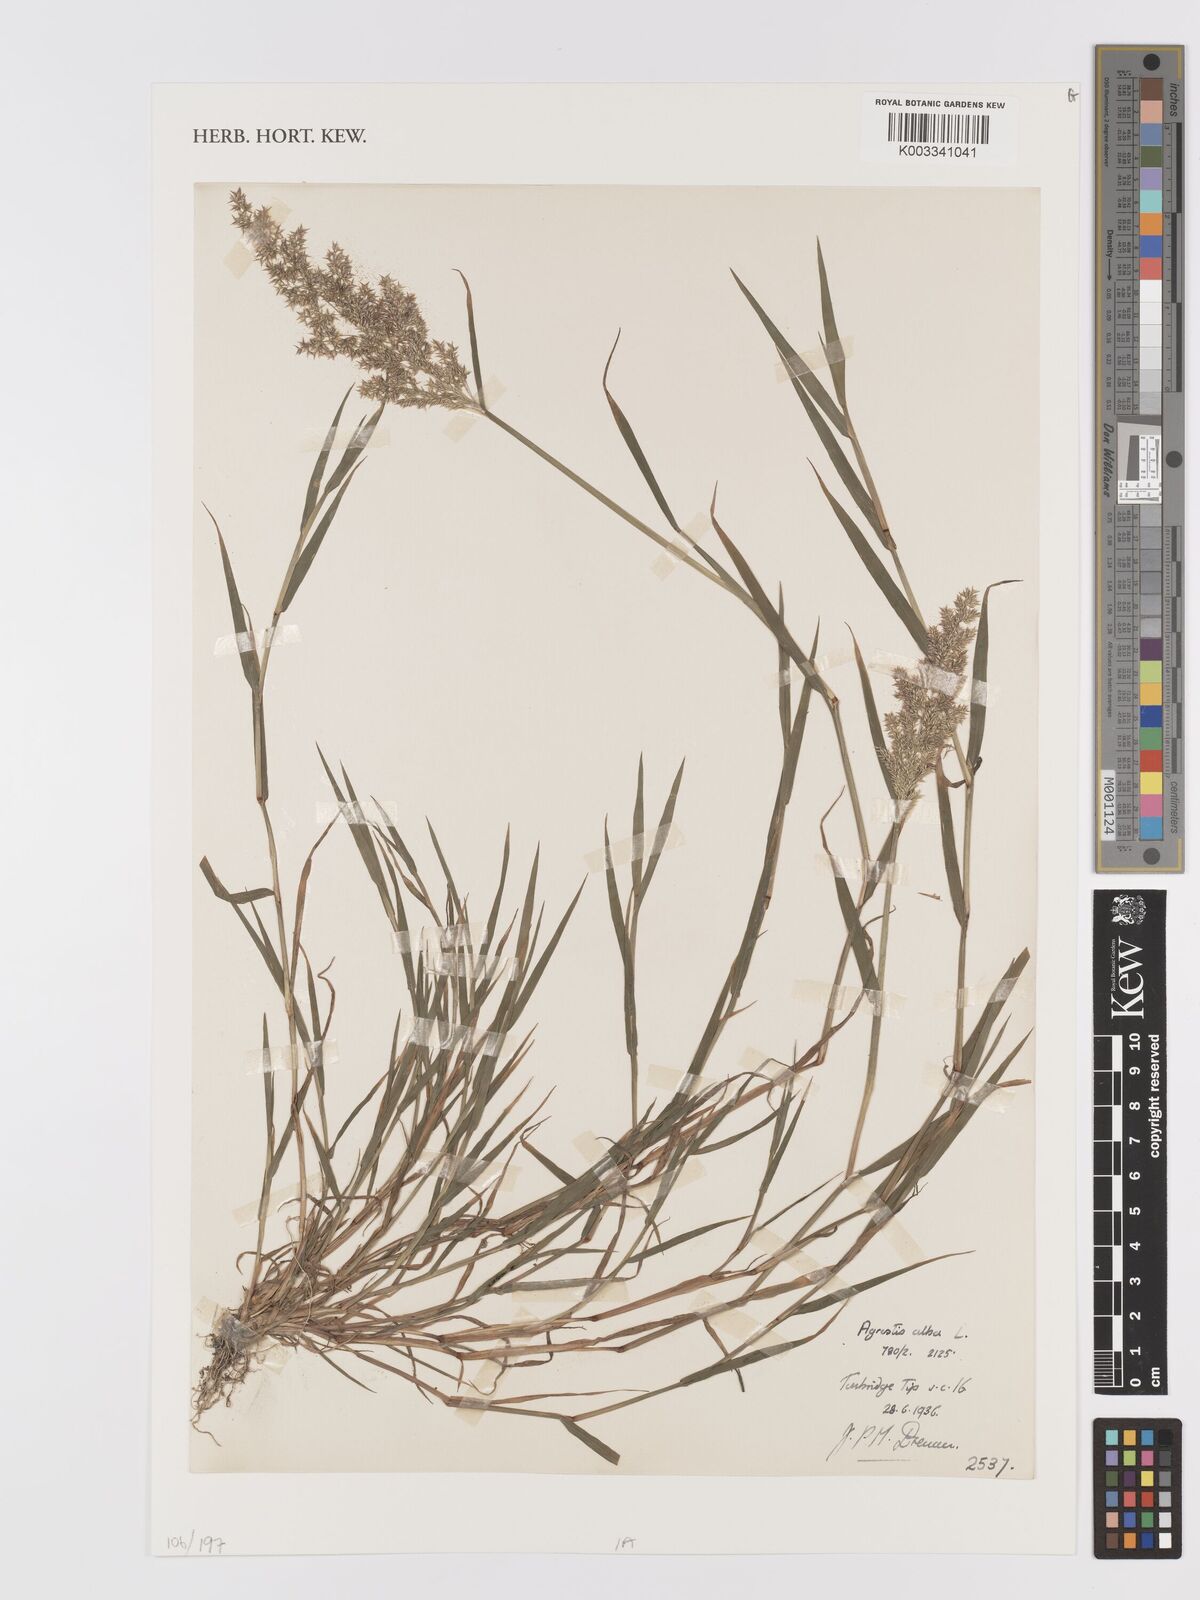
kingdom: Plantae
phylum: Tracheophyta
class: Liliopsida
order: Poales
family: Poaceae
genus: Agrostis
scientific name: Agrostis gigantea
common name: Black bent
